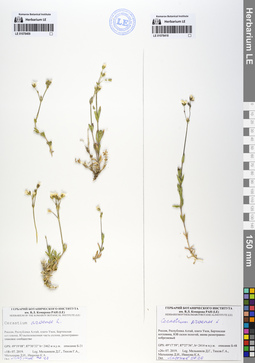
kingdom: Plantae
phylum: Tracheophyta
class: Magnoliopsida
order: Caryophyllales
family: Caryophyllaceae
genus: Cerastium
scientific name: Cerastium arvense
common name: Field mouse-ear
